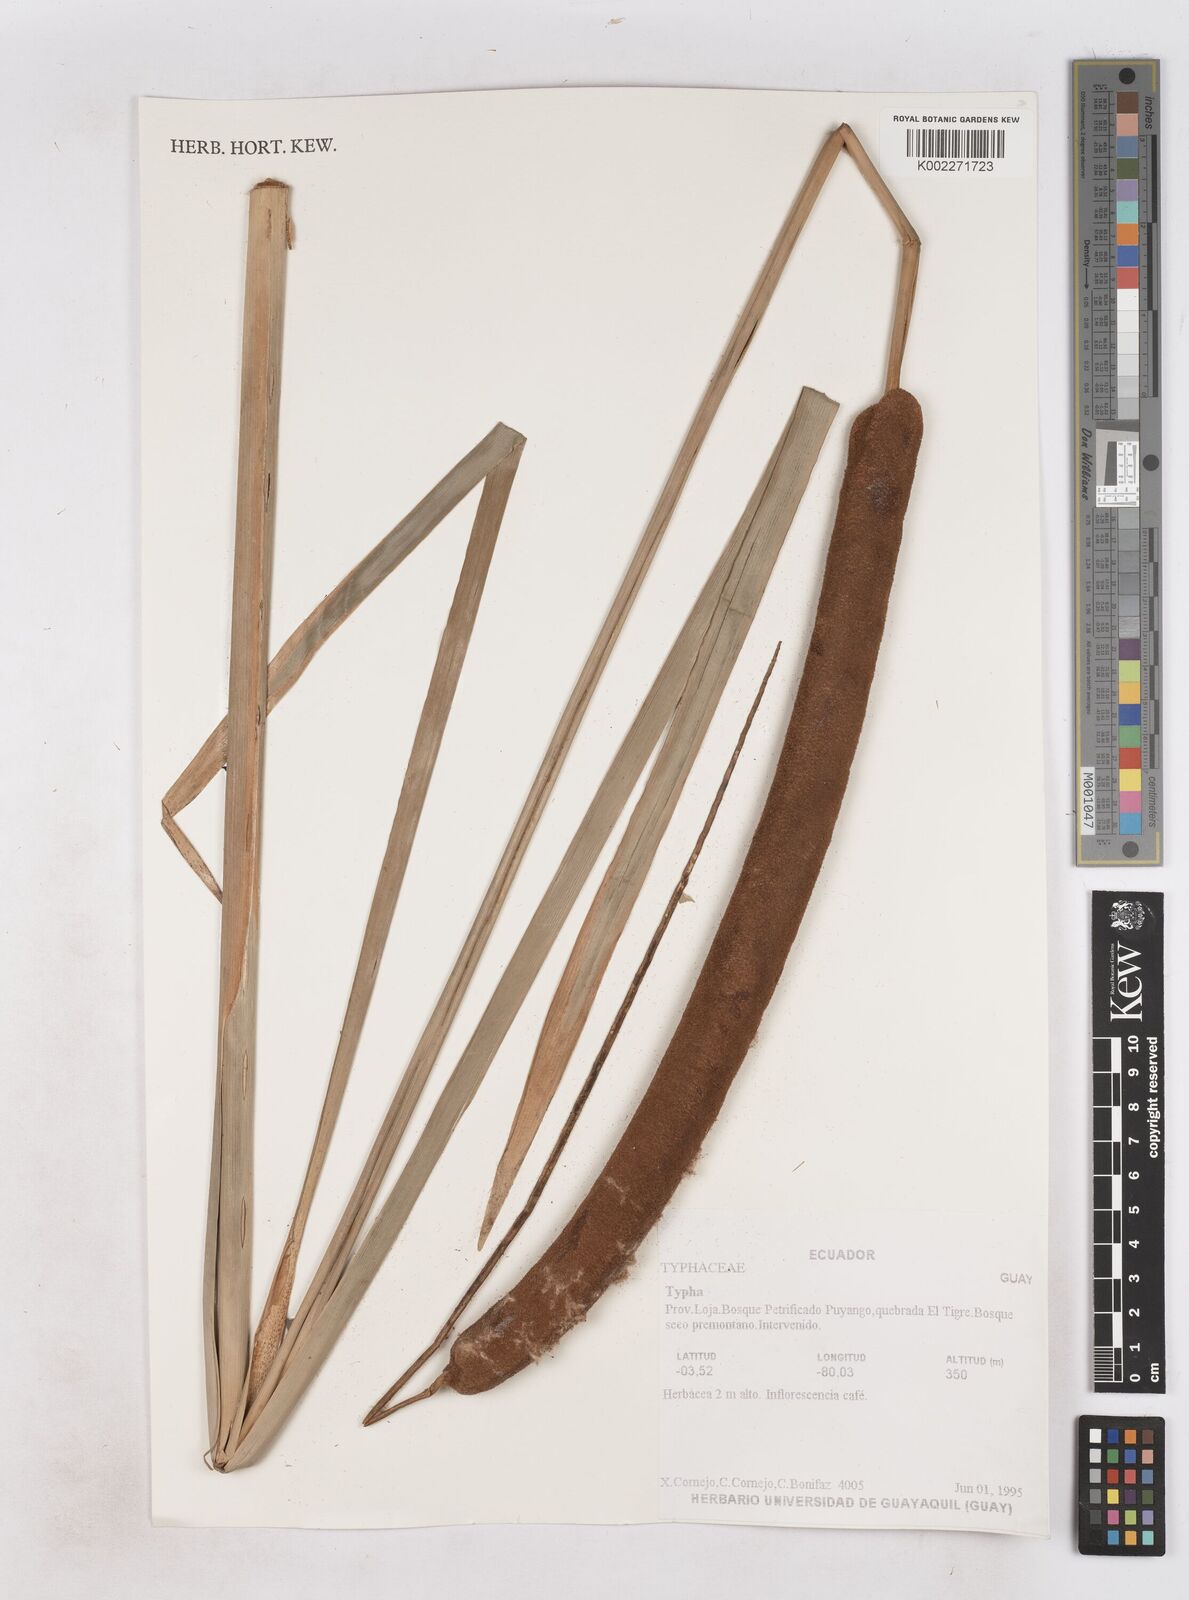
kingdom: Plantae
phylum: Tracheophyta
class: Liliopsida
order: Poales
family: Typhaceae
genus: Typha
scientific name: Typha
